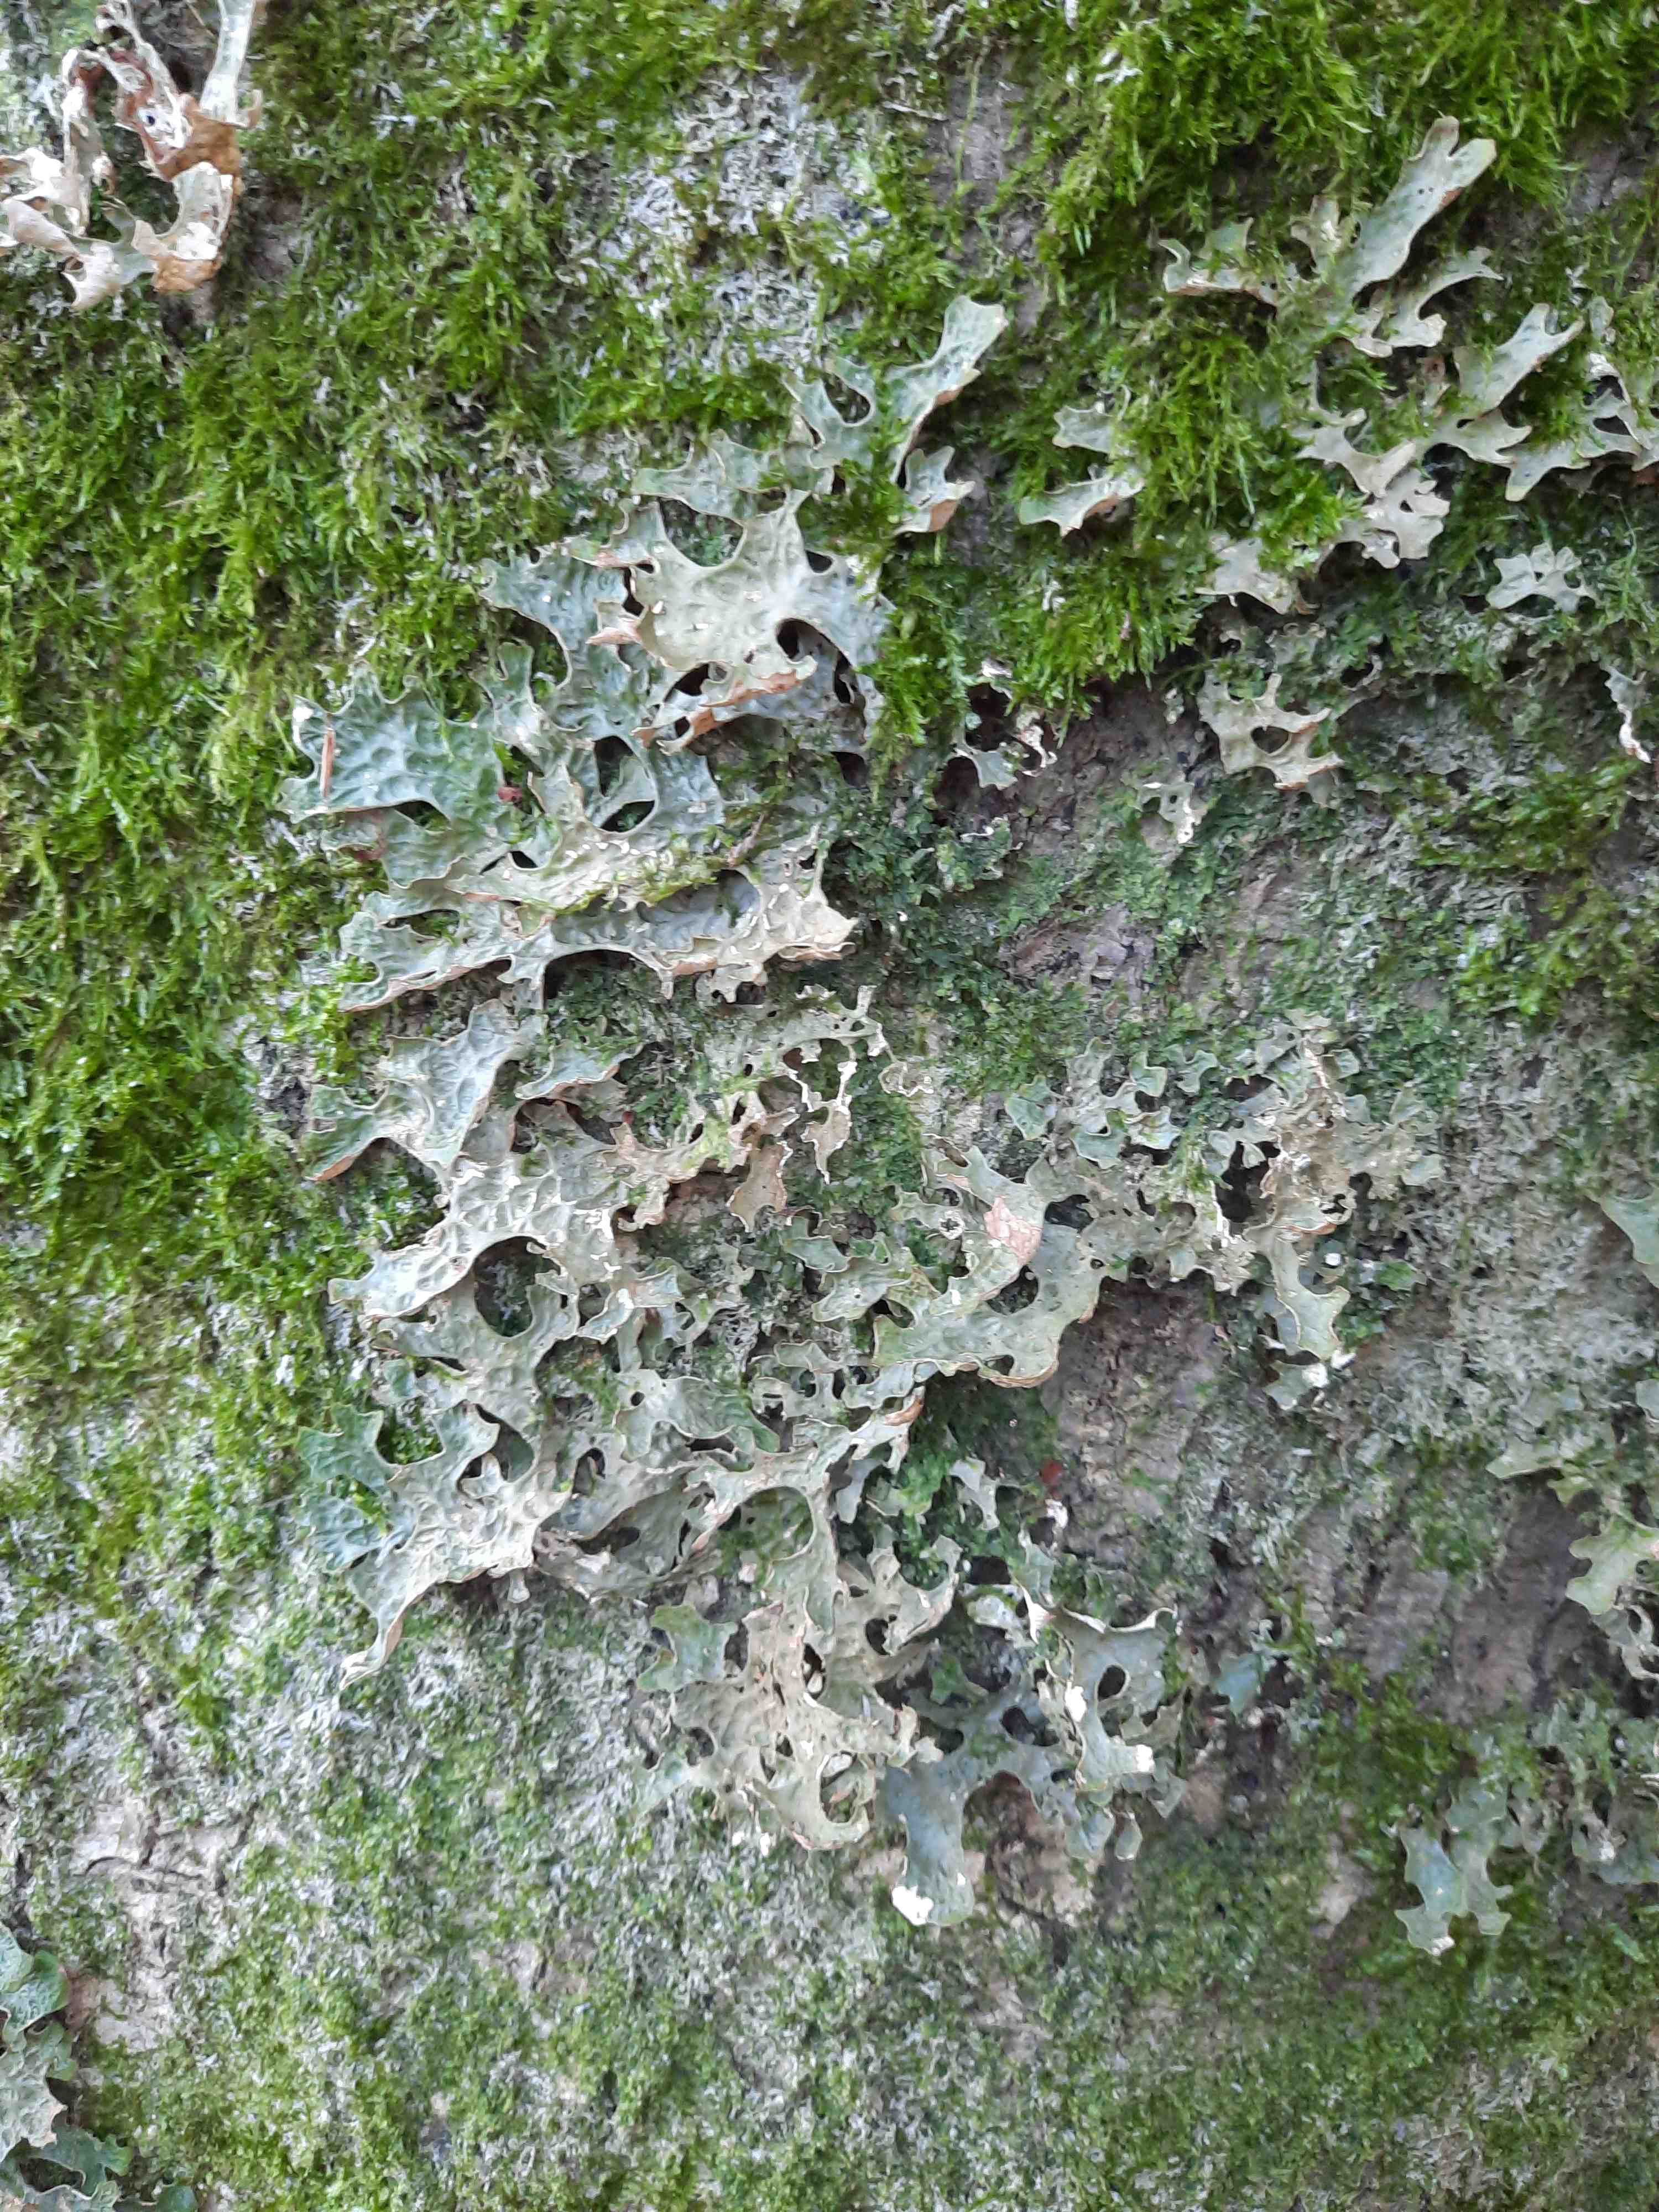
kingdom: Fungi
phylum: Ascomycota
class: Lecanoromycetes
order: Peltigerales
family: Lobariaceae
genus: Lobaria
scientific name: Lobaria pulmonaria
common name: almindelig lungelav
